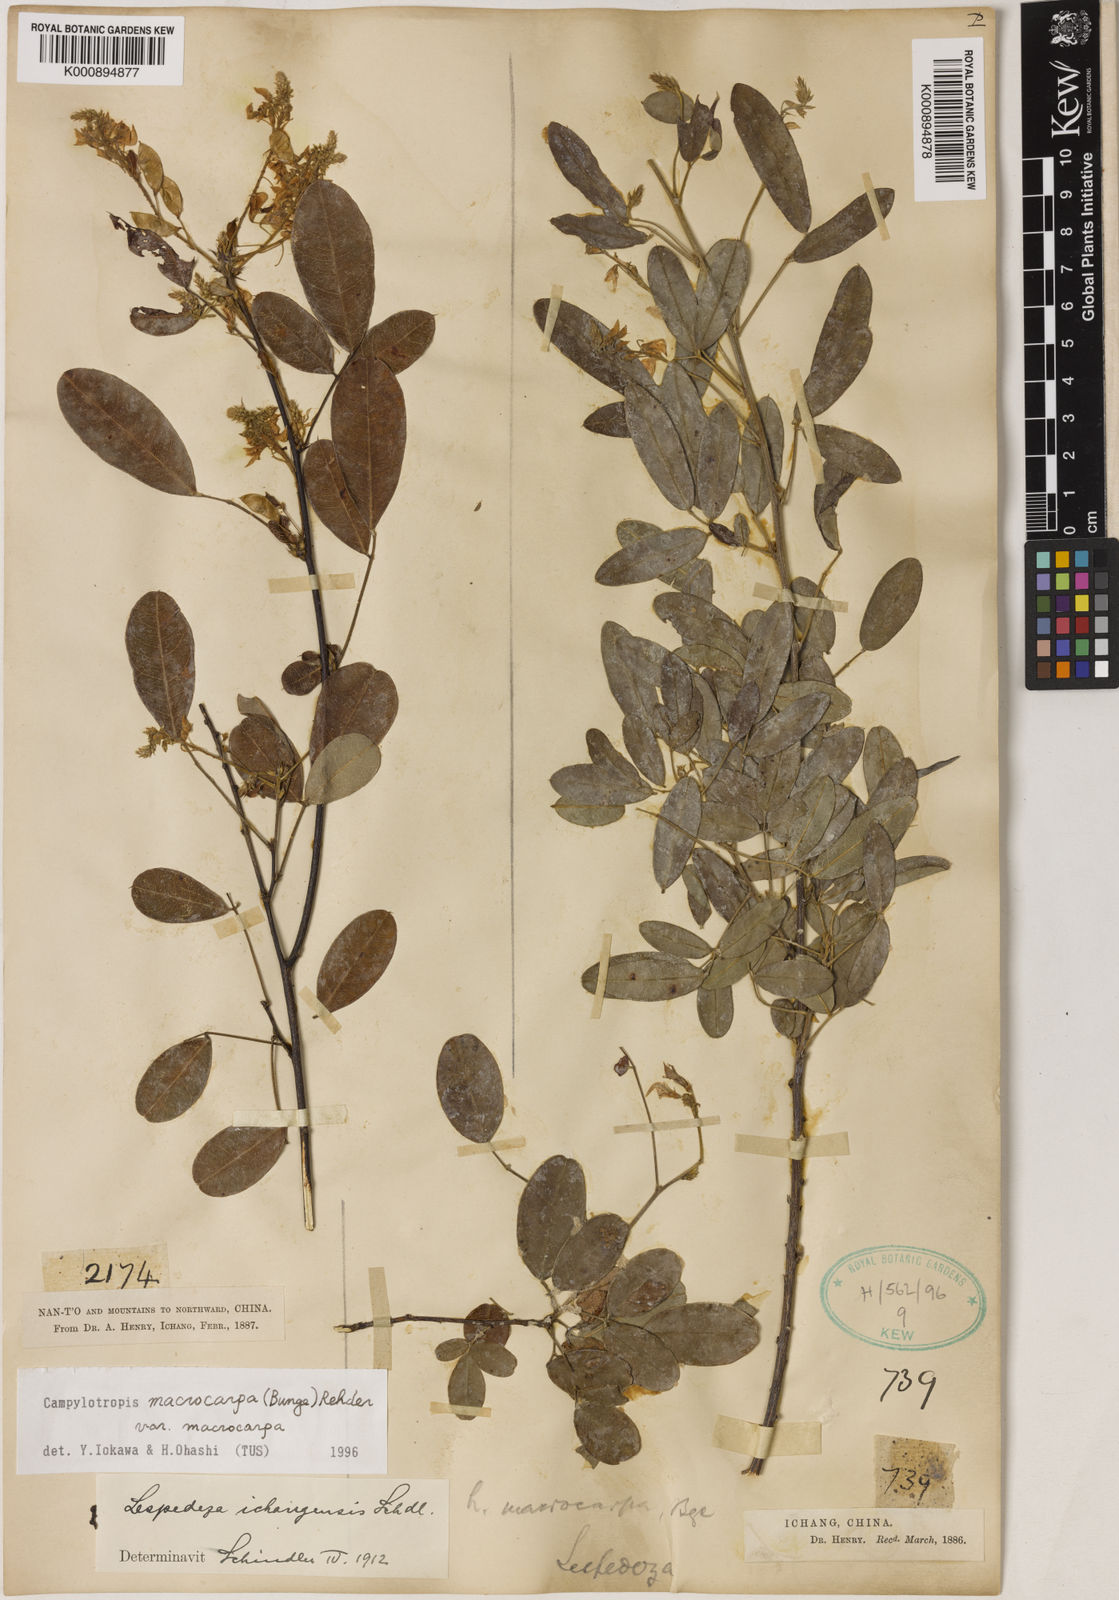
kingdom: Plantae
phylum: Tracheophyta
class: Magnoliopsida
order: Fabales
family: Fabaceae
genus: Campylotropis
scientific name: Campylotropis macrocarpa
